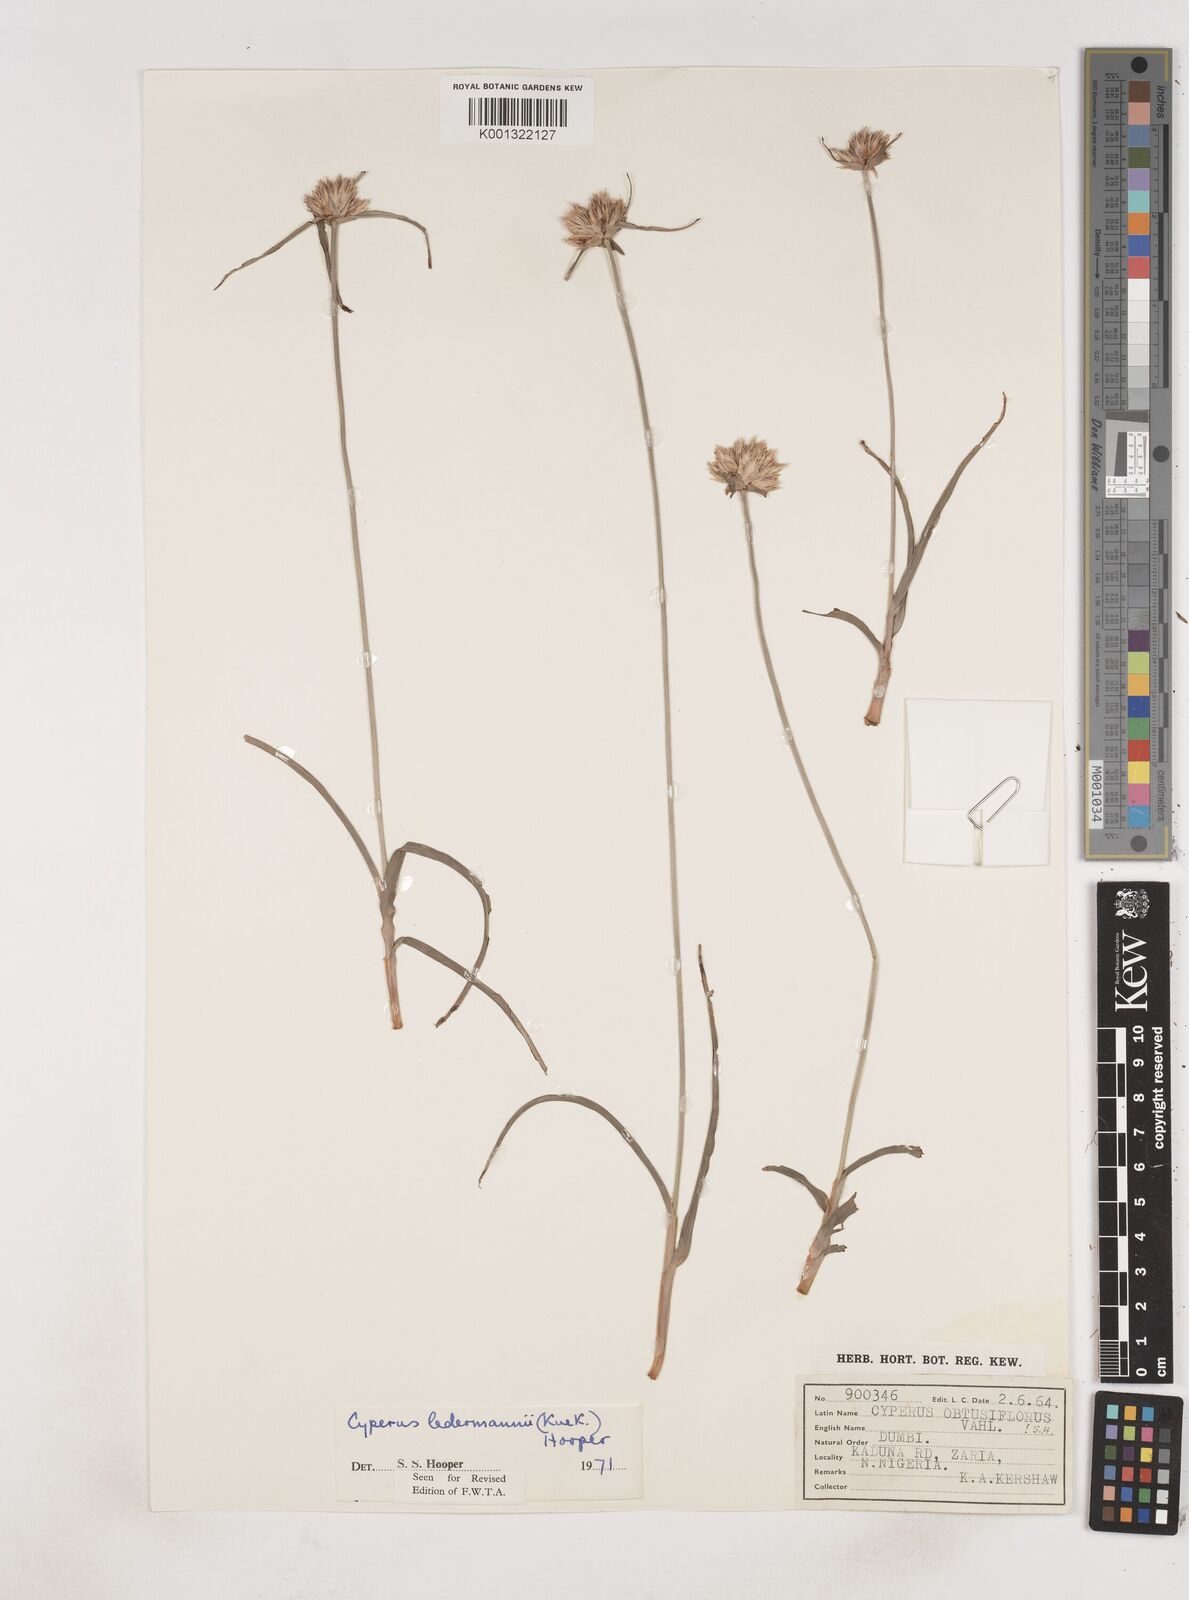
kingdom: Plantae
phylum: Tracheophyta
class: Liliopsida
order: Poales
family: Cyperaceae
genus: Cyperus
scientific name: Cyperus niveus
